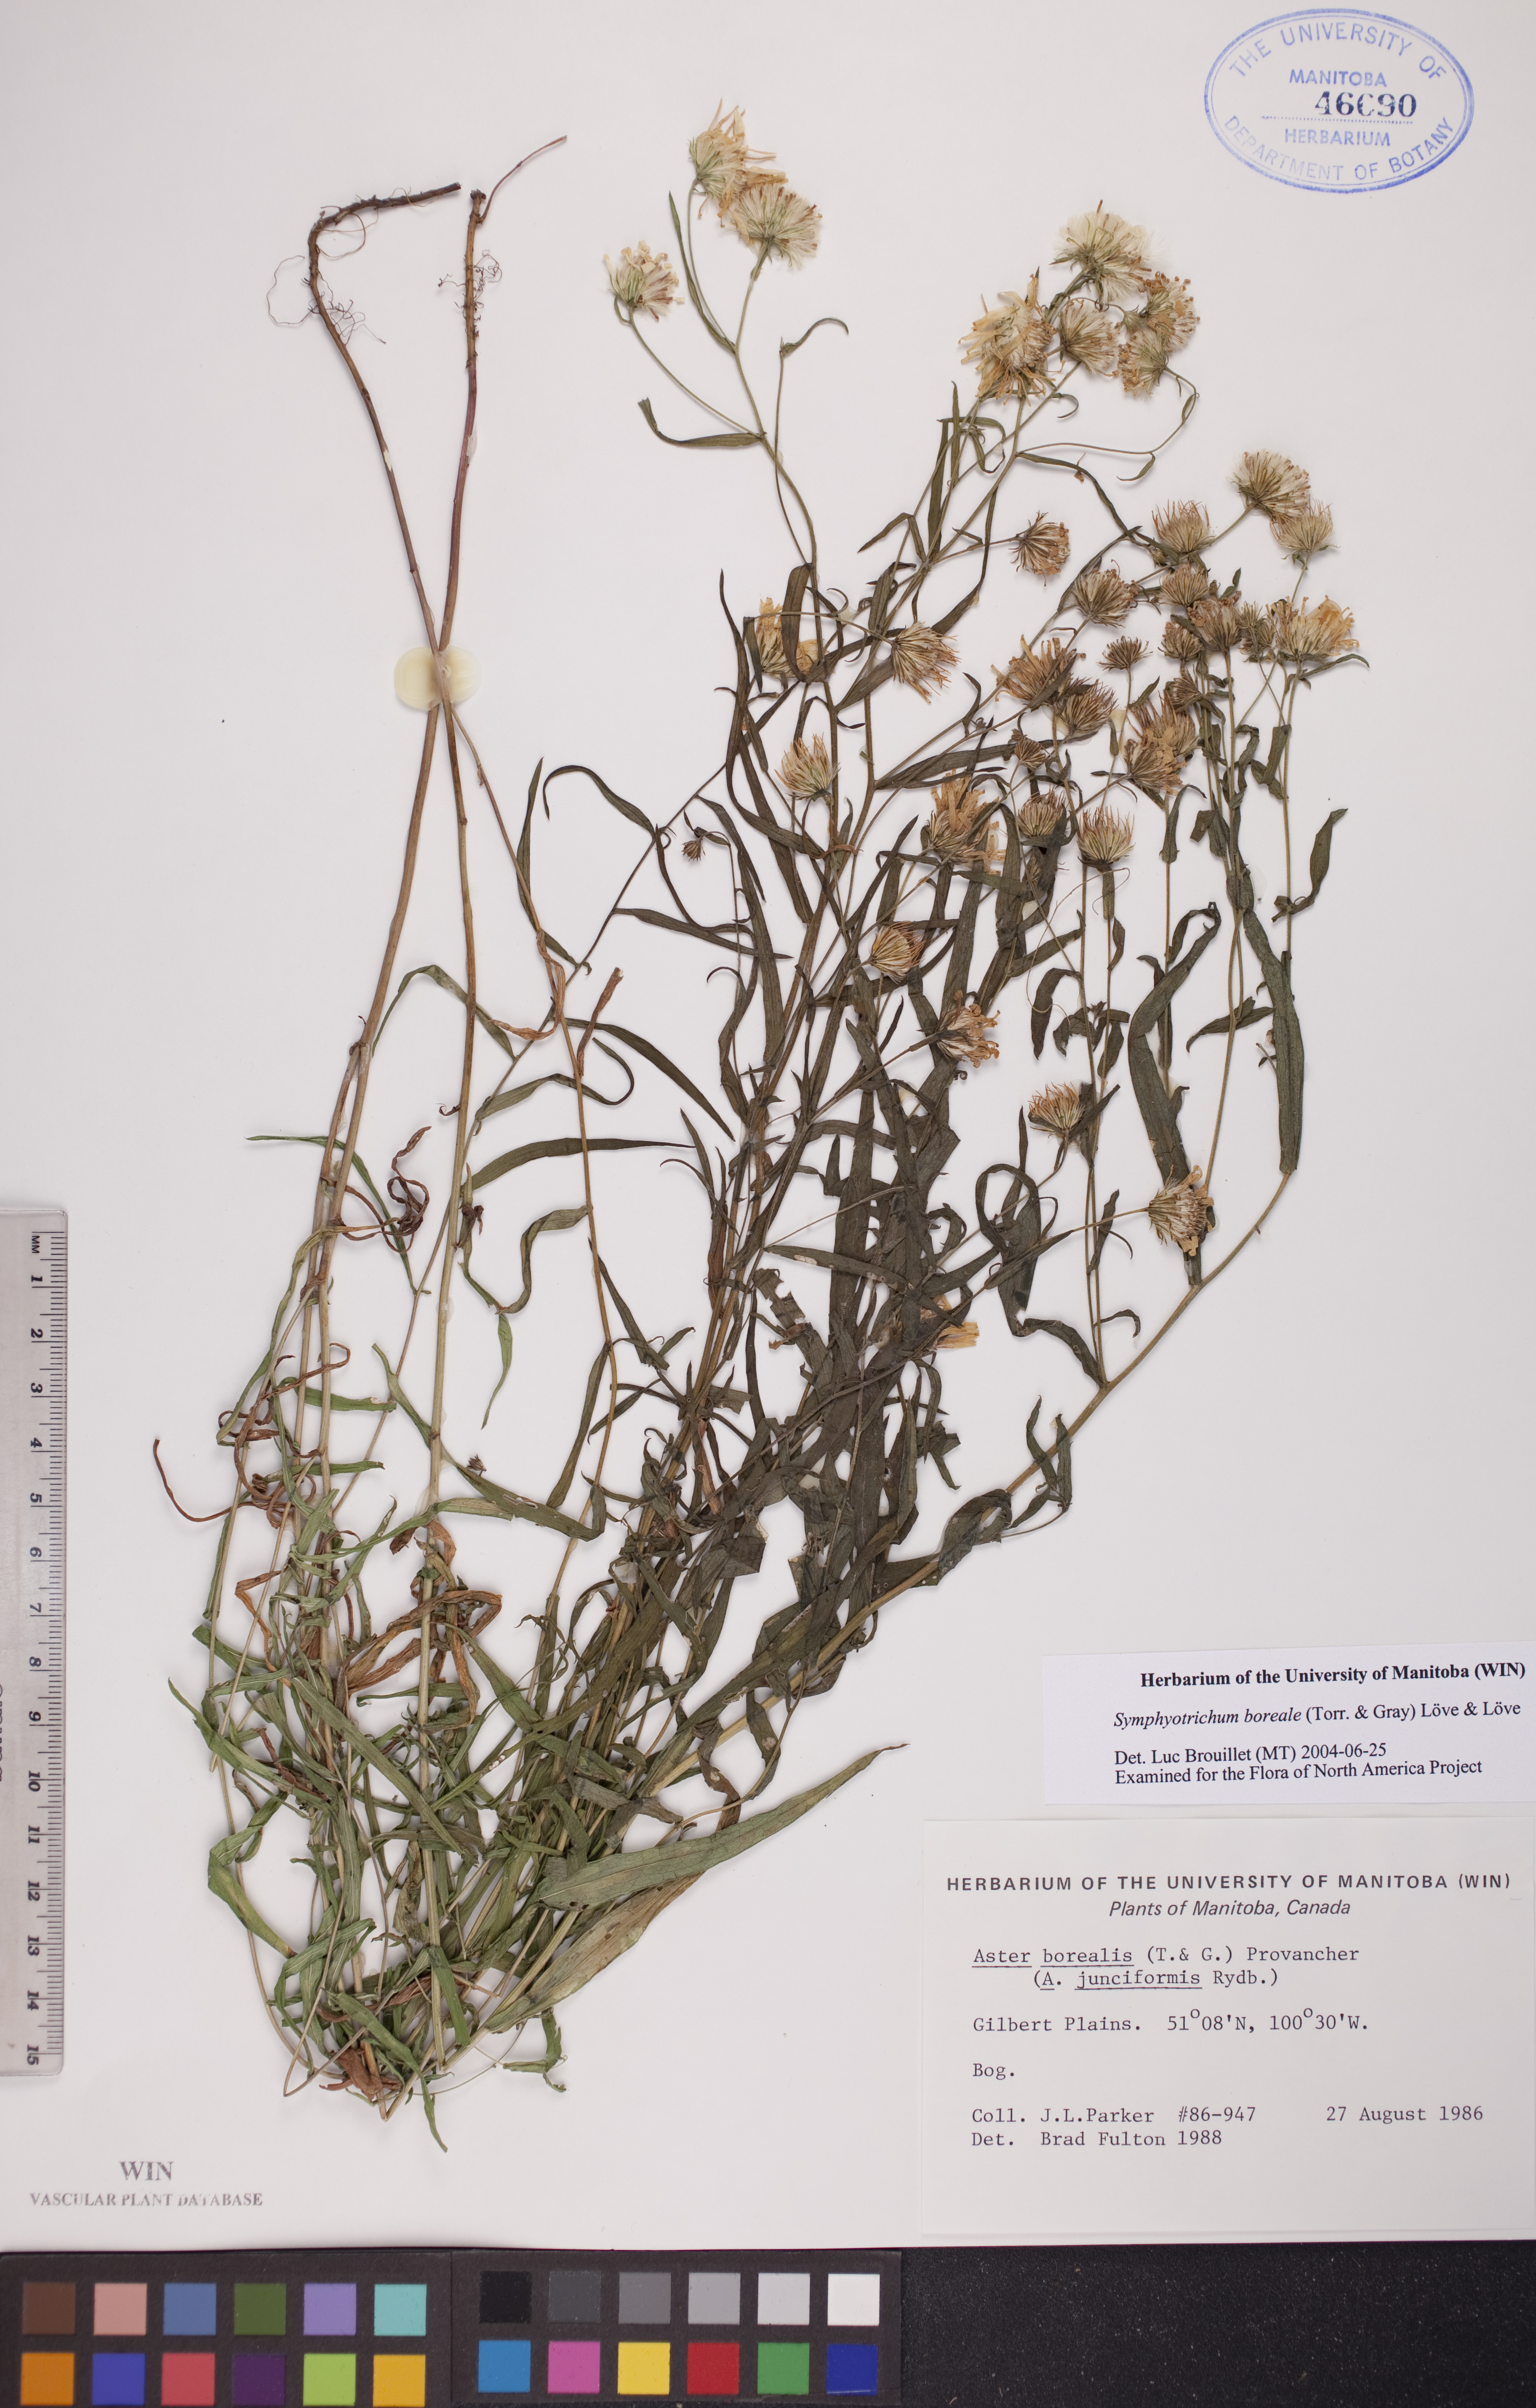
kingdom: Plantae
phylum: Tracheophyta
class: Magnoliopsida
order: Asterales
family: Asteraceae
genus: Symphyotrichum
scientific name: Symphyotrichum boreale
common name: Northern bog aster
